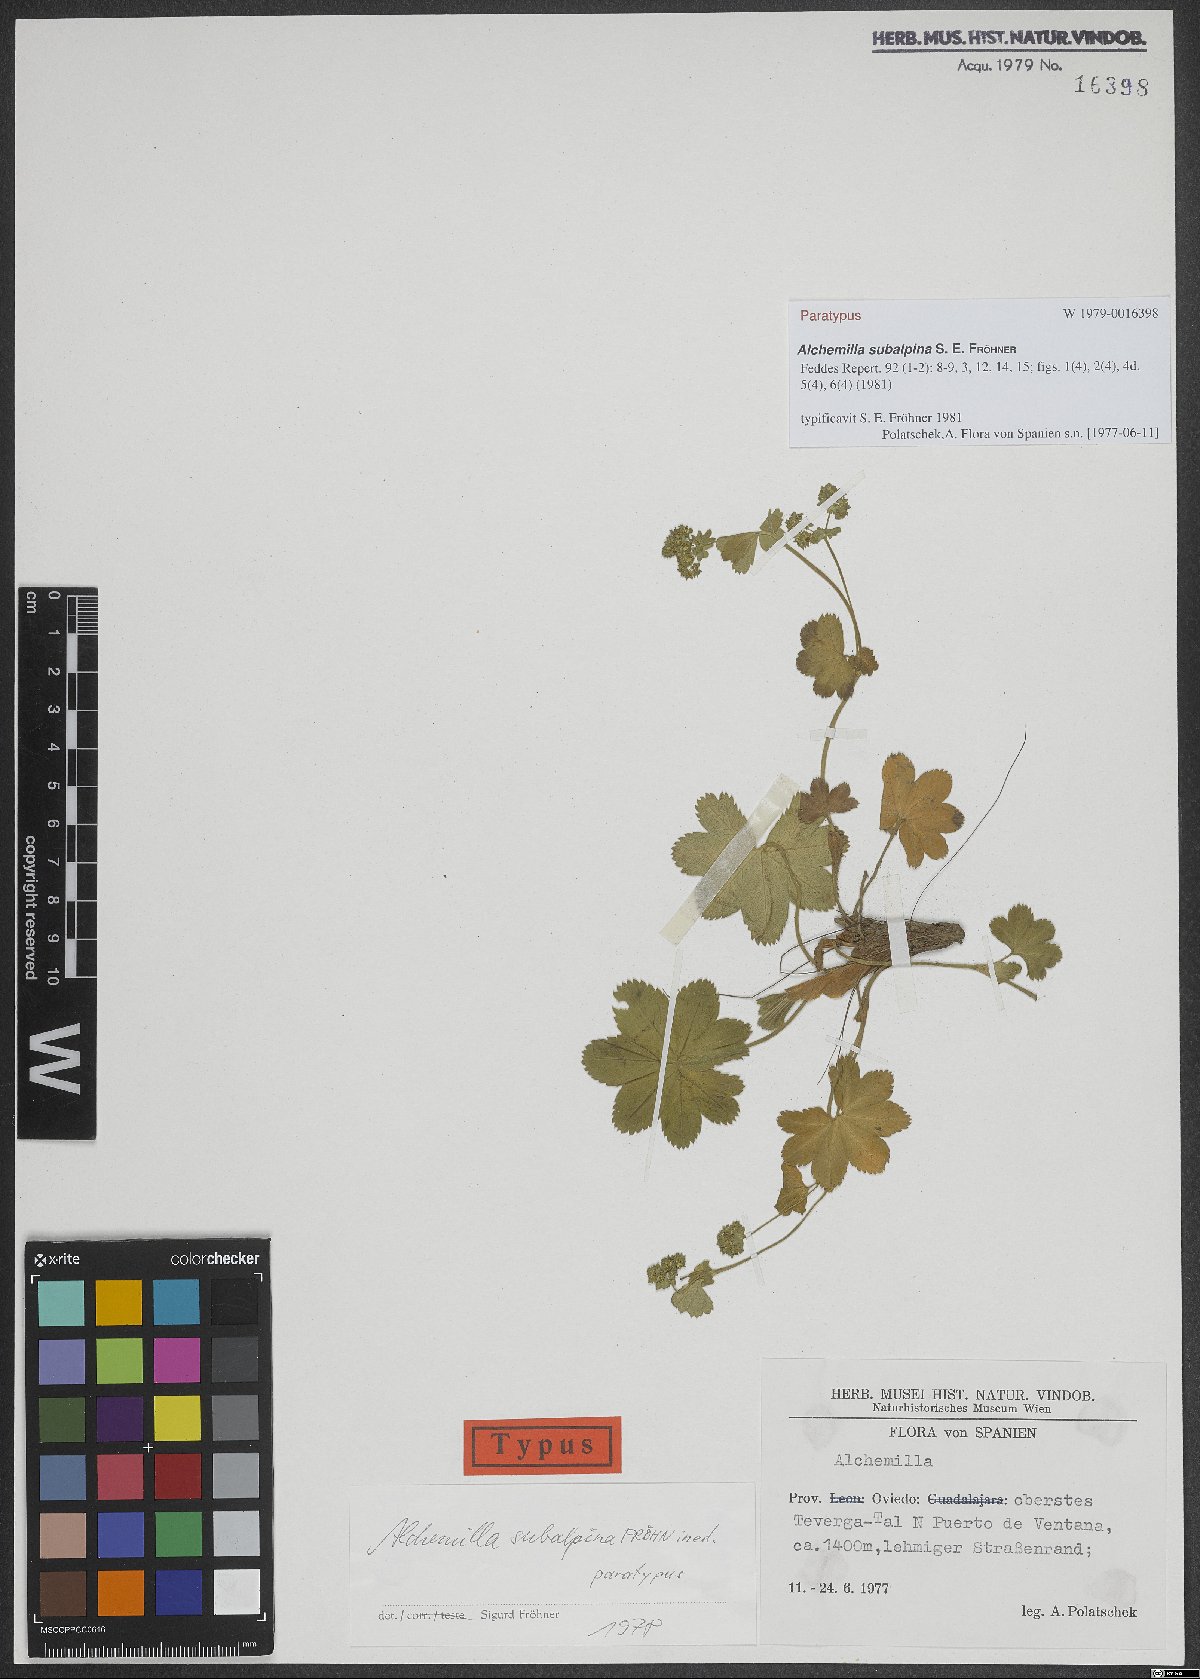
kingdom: Plantae
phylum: Tracheophyta
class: Magnoliopsida
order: Rosales
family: Rosaceae
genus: Alchemilla
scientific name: Alchemilla subalpina
